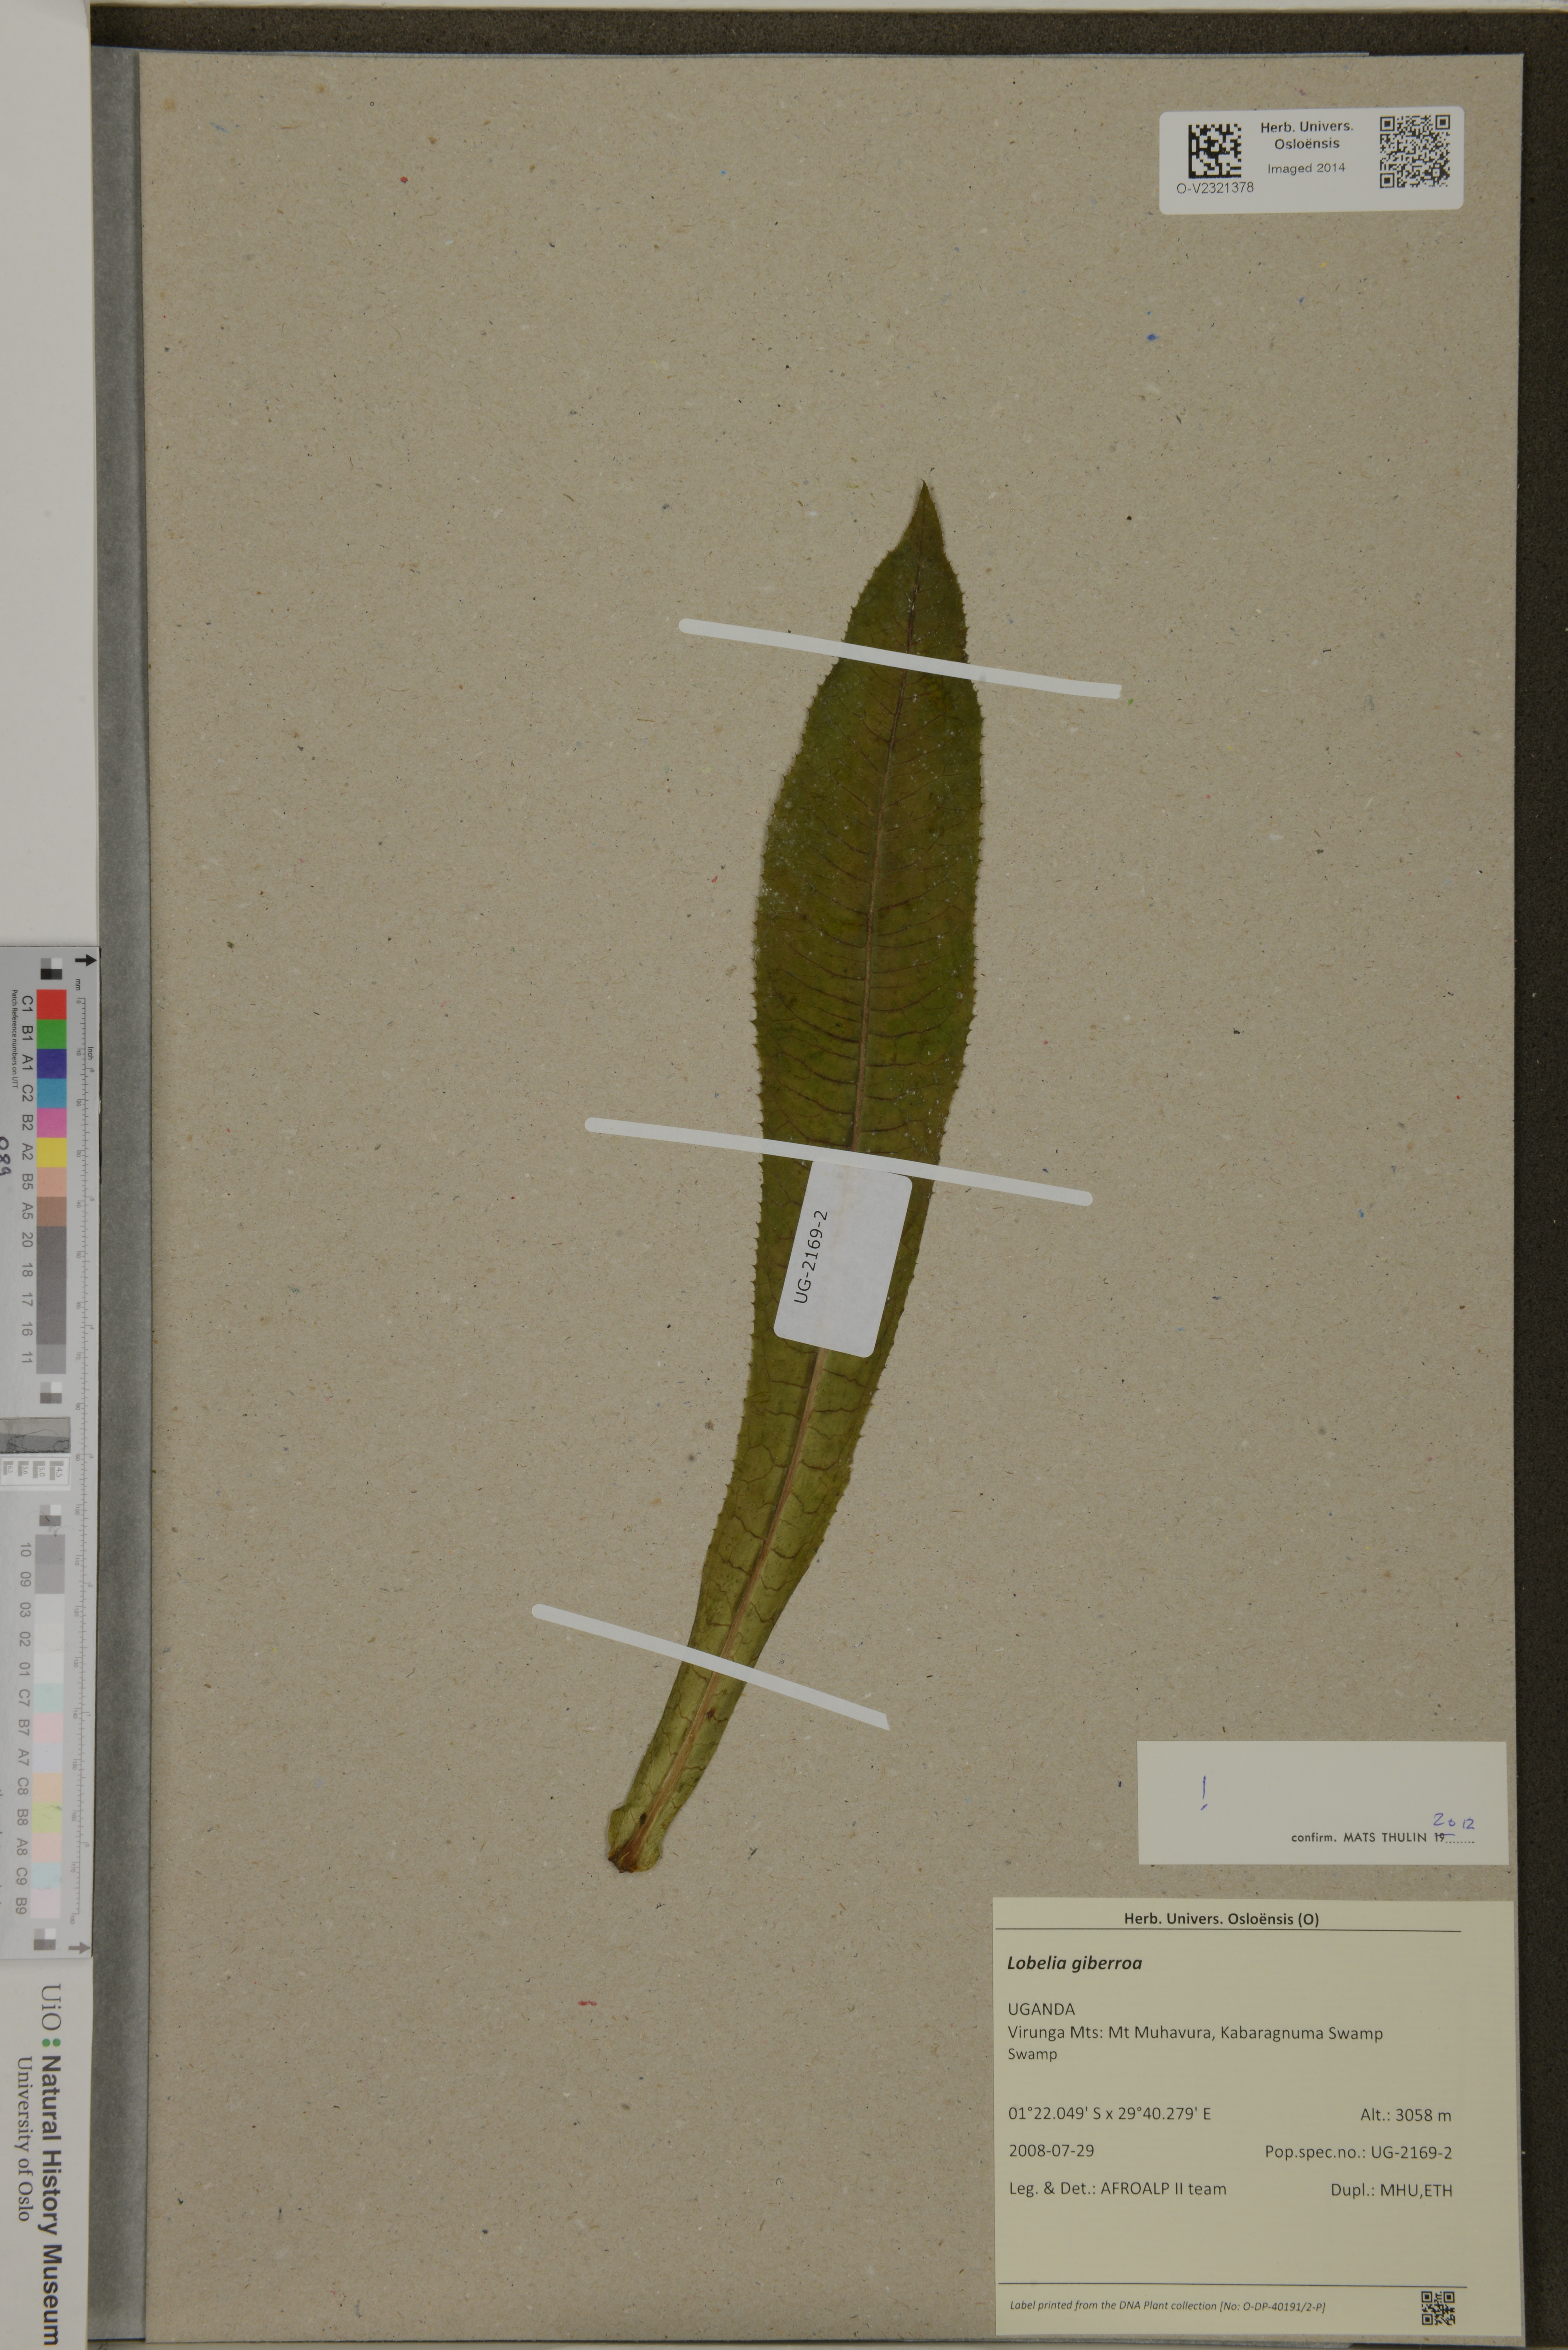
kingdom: Plantae
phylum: Tracheophyta
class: Magnoliopsida
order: Asterales
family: Campanulaceae
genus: Lobelia
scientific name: Lobelia giberroa
